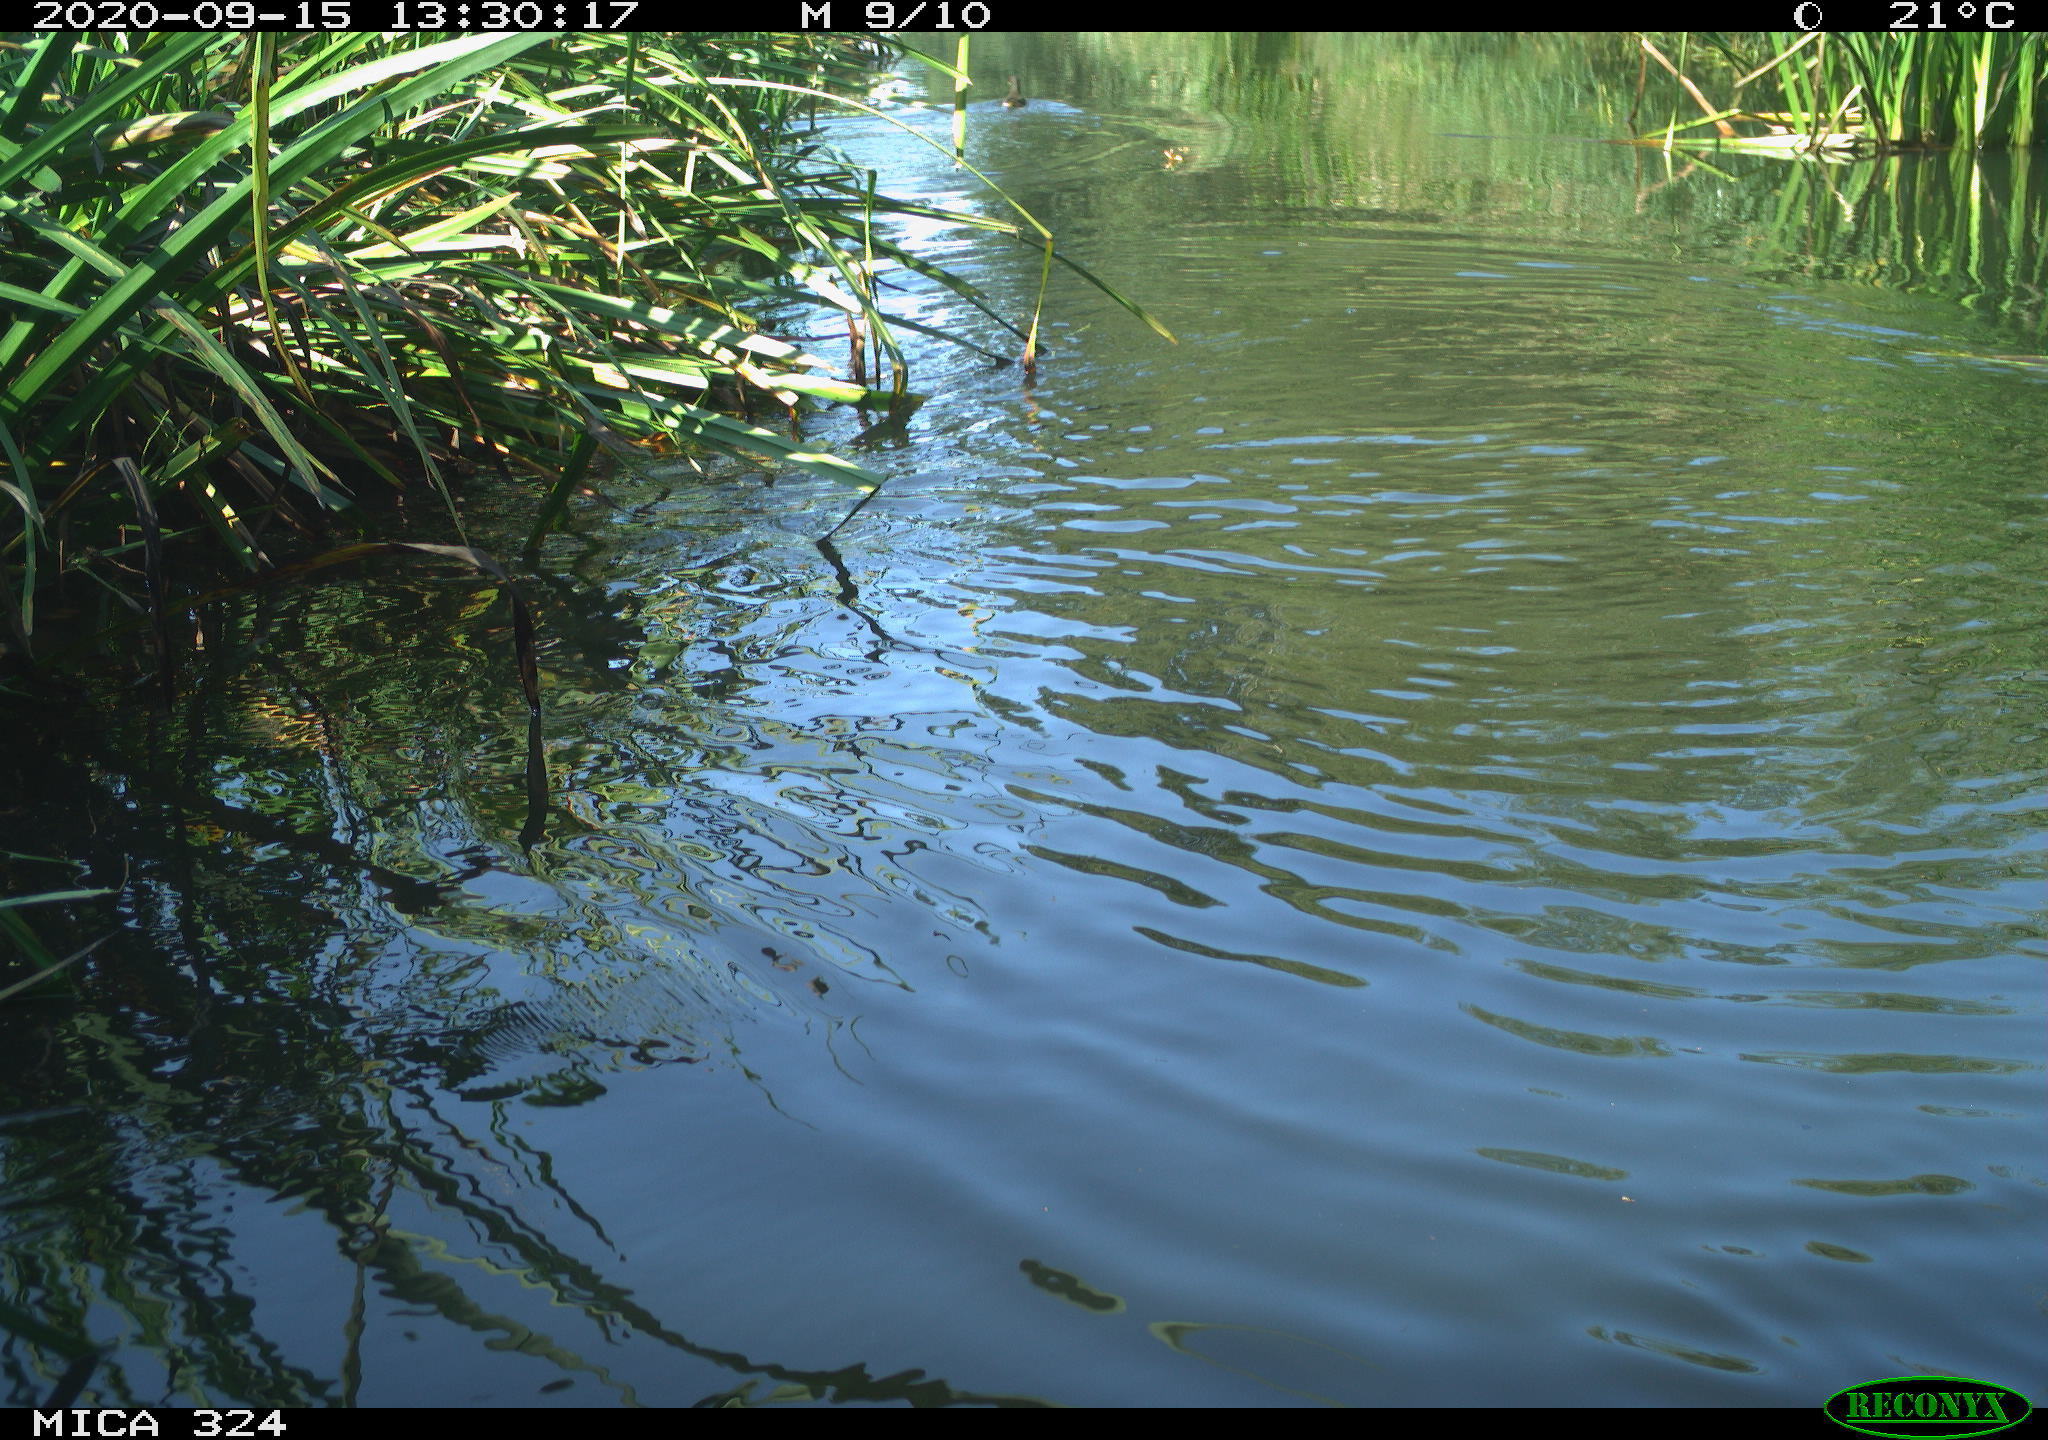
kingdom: Animalia
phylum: Chordata
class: Aves
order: Gruiformes
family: Rallidae
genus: Gallinula
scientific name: Gallinula chloropus
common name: Common moorhen
